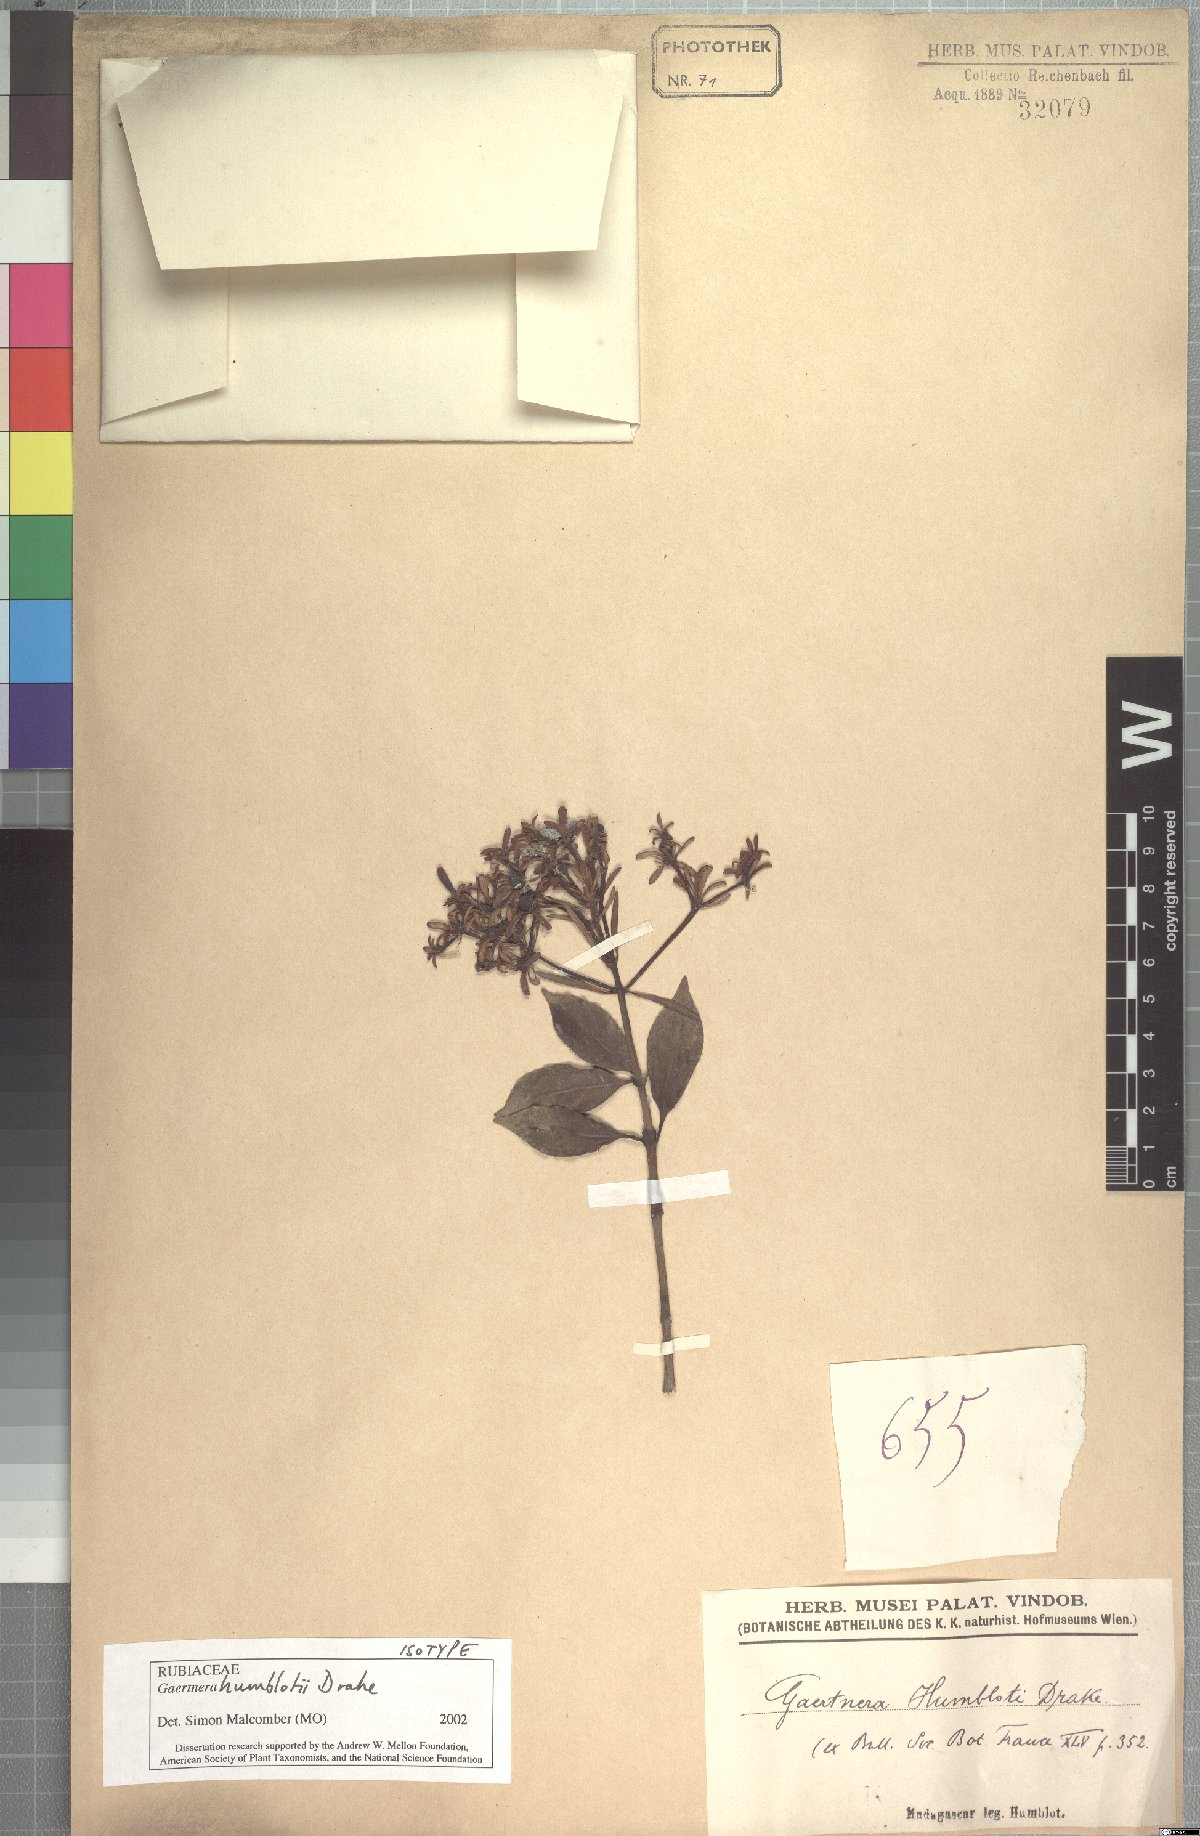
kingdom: Plantae
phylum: Tracheophyta
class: Magnoliopsida
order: Gentianales
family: Rubiaceae
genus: Gaertnera
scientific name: Gaertnera humblotii
